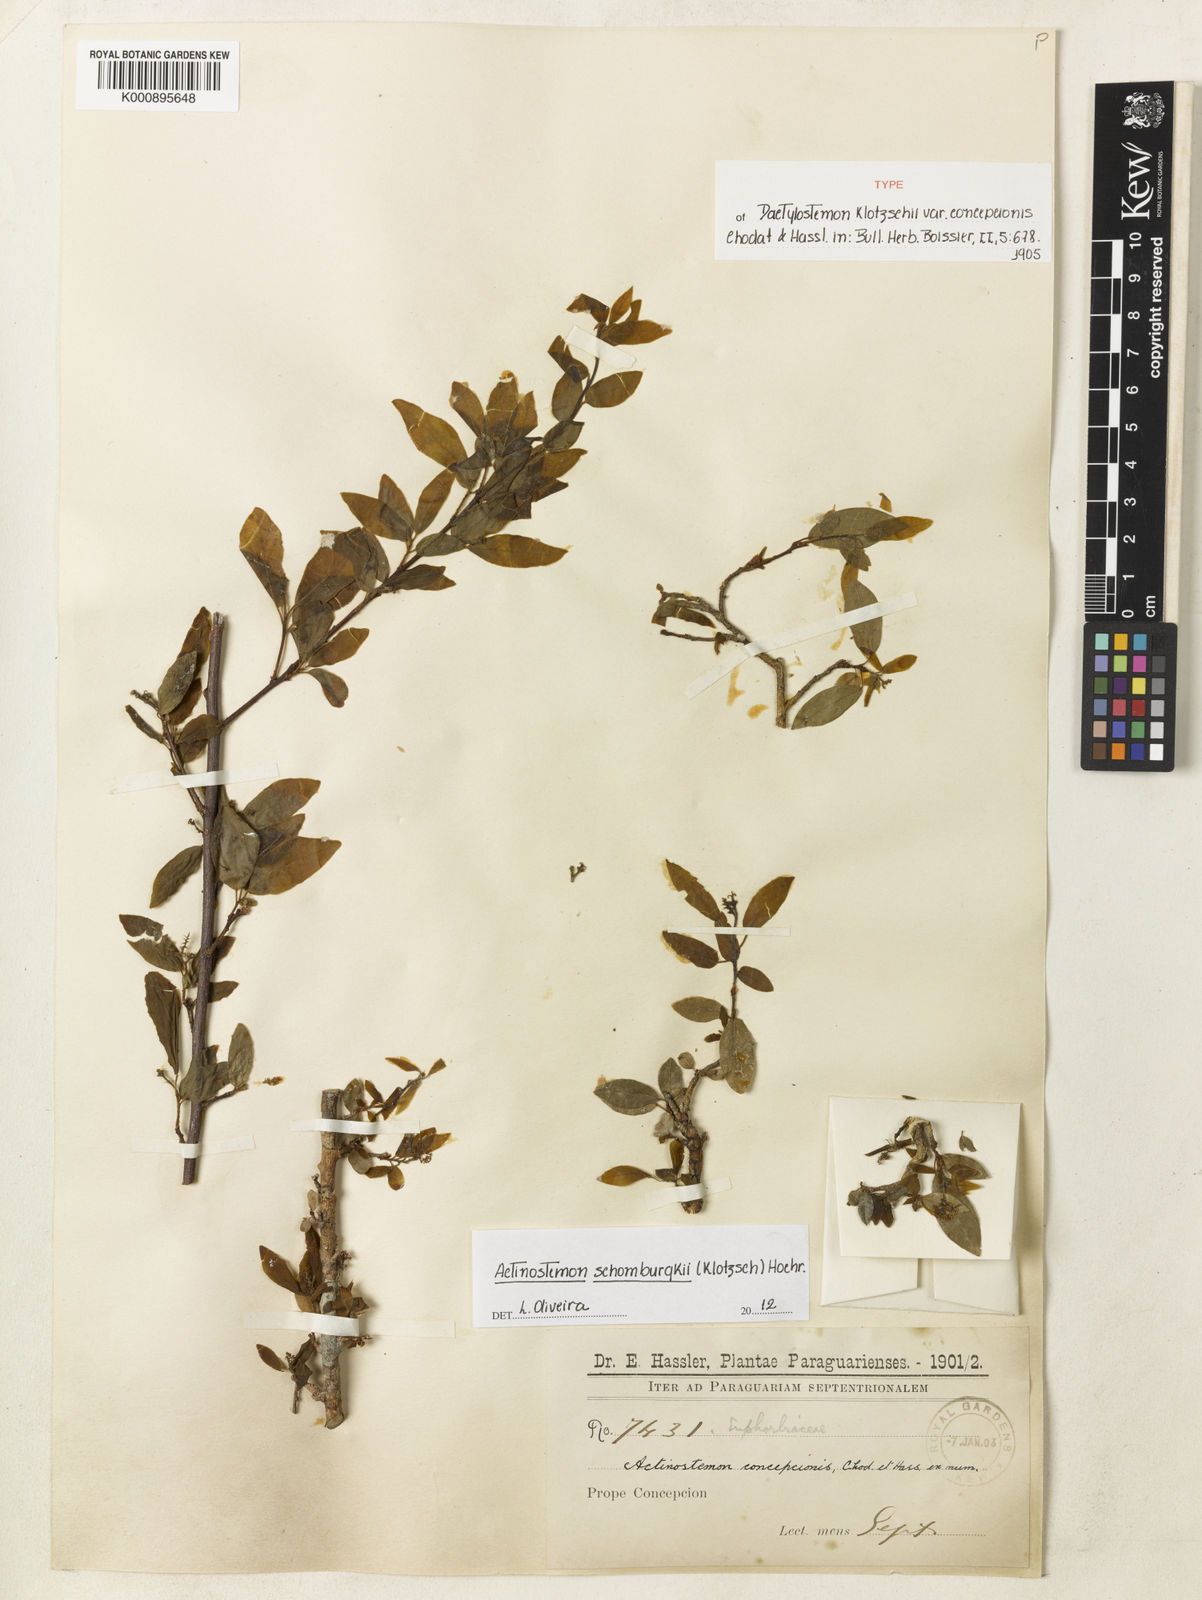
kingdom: Plantae
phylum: Tracheophyta
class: Magnoliopsida
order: Malpighiales
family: Euphorbiaceae
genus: Actinostemon
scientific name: Actinostemon schomburgkii
